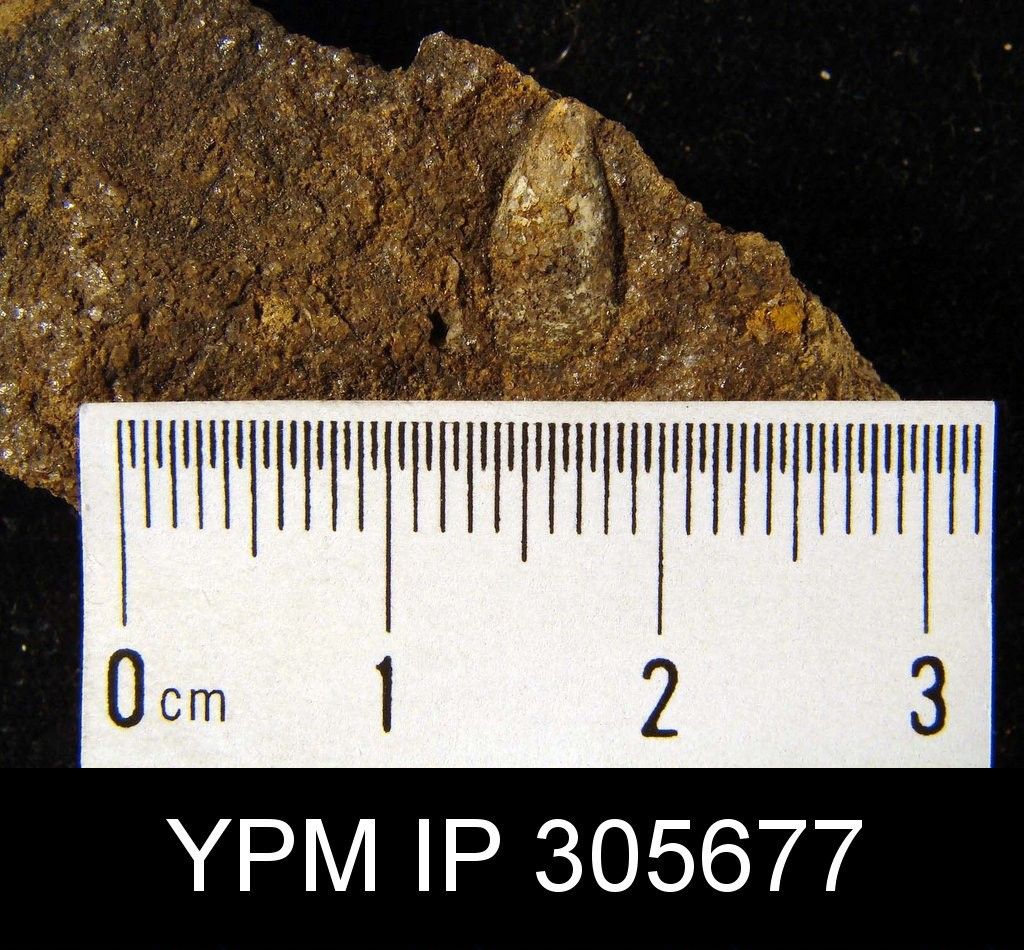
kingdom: Animalia
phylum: Brachiopoda
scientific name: Brachiopoda
